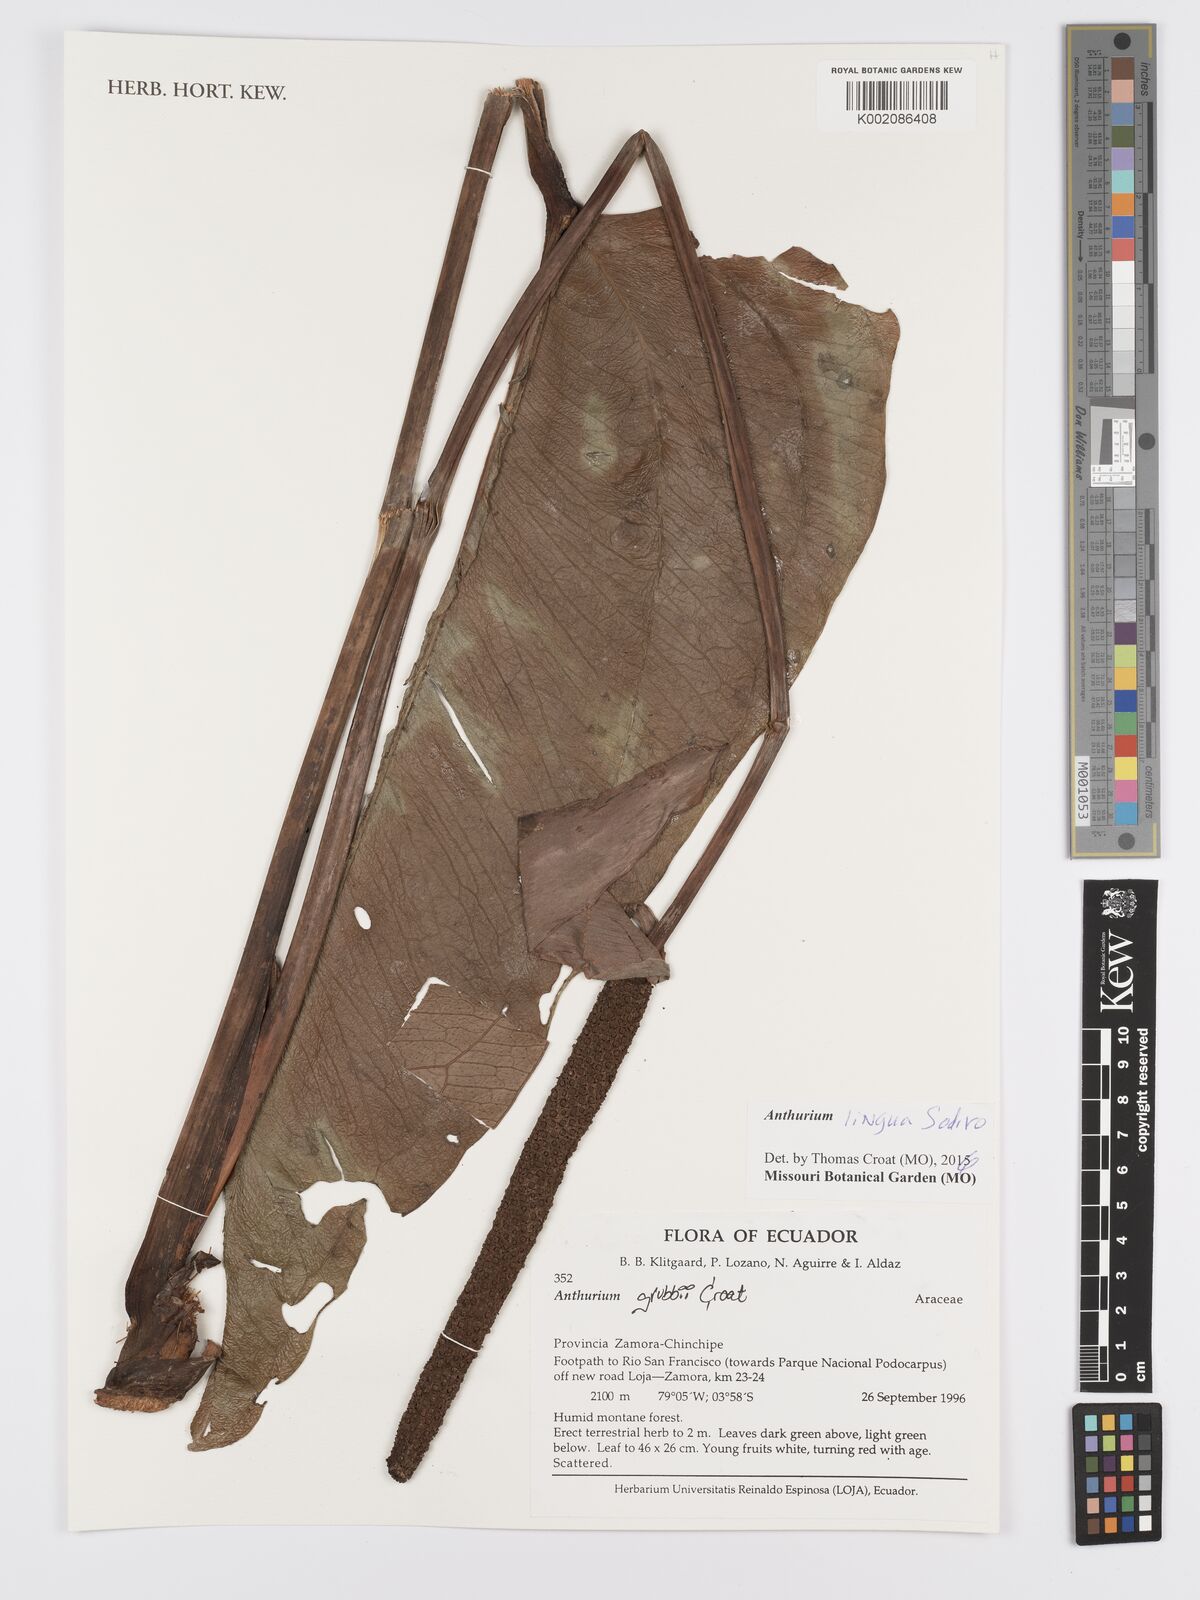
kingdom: Plantae
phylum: Tracheophyta
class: Liliopsida
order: Alismatales
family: Araceae
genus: Anthurium
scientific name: Anthurium lingua
